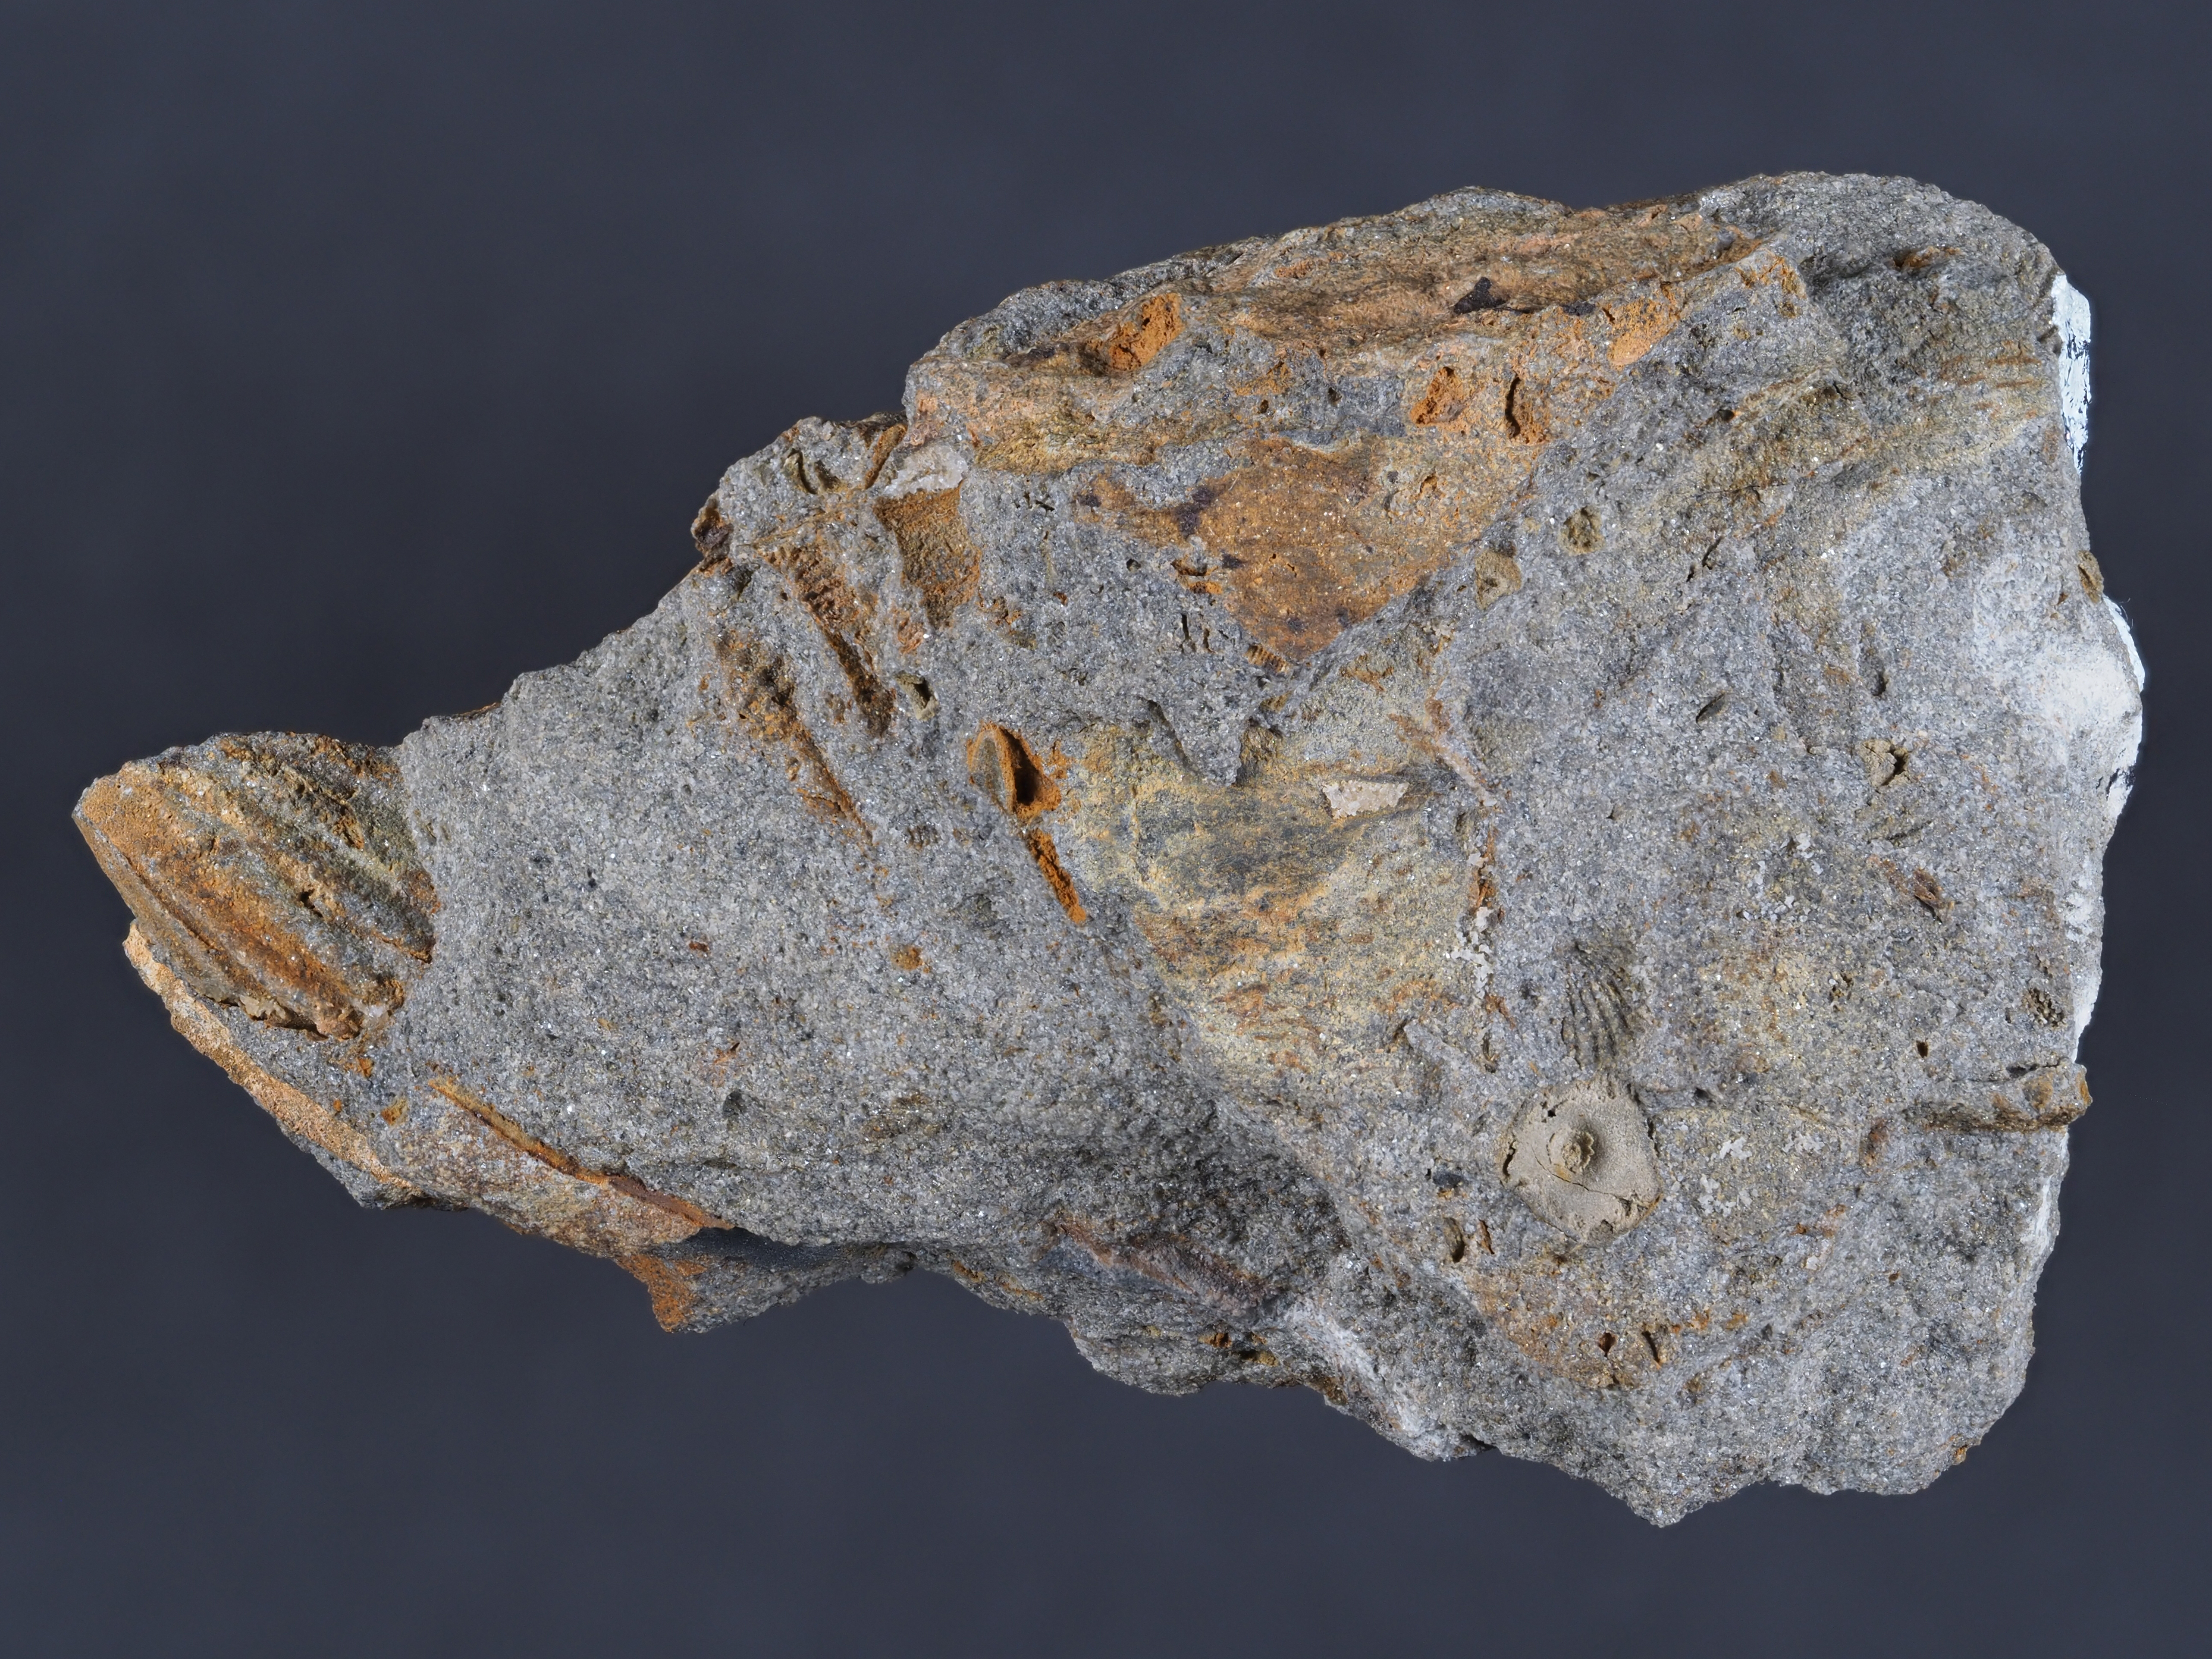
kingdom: Animalia
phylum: Echinodermata
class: Crinoidea
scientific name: Crinoidea
